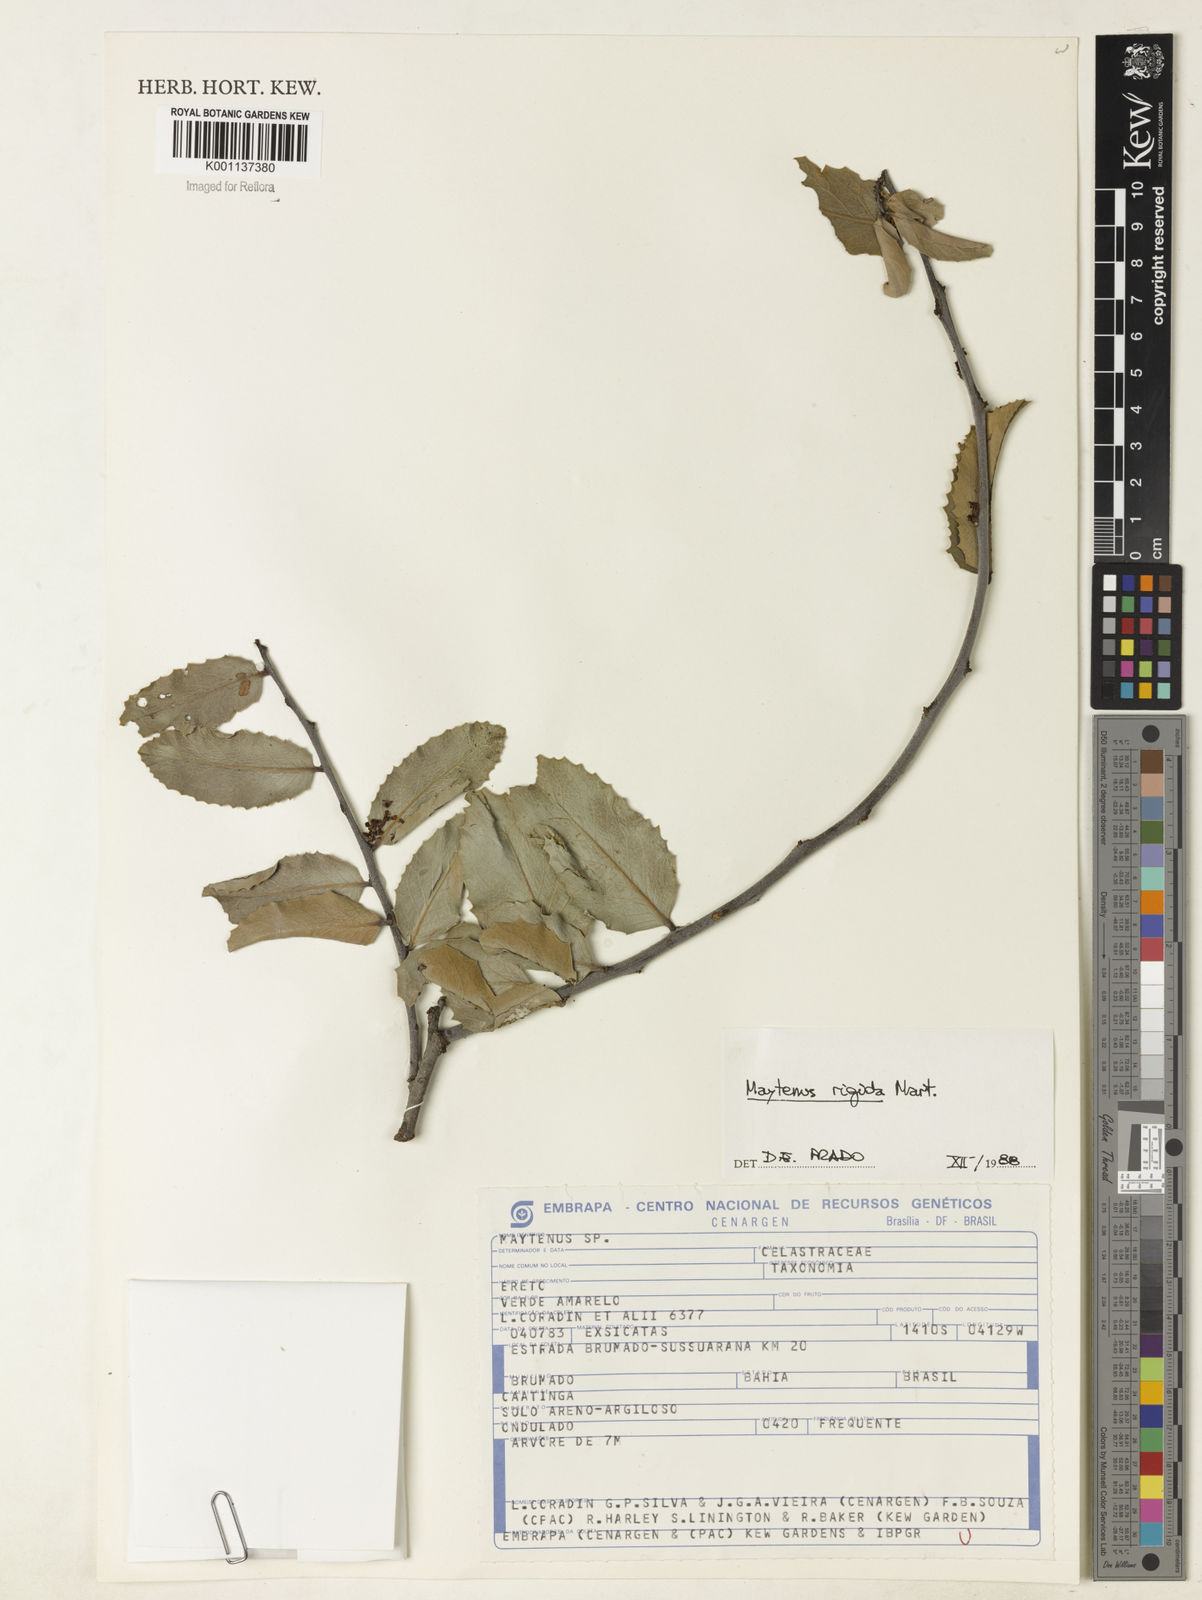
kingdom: Plantae
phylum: Tracheophyta
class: Magnoliopsida
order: Celastrales
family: Celastraceae
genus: Monteverdia
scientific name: Monteverdia rigida
